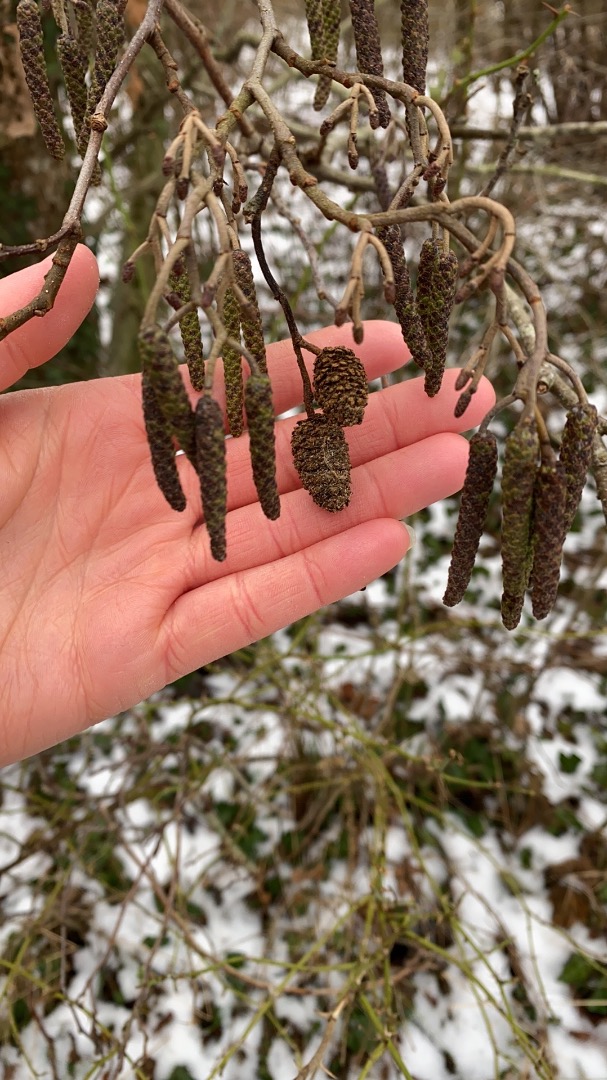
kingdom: Plantae
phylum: Tracheophyta
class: Magnoliopsida
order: Fagales
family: Betulaceae
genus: Alnus
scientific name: Alnus glutinosa
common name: Rød-el
